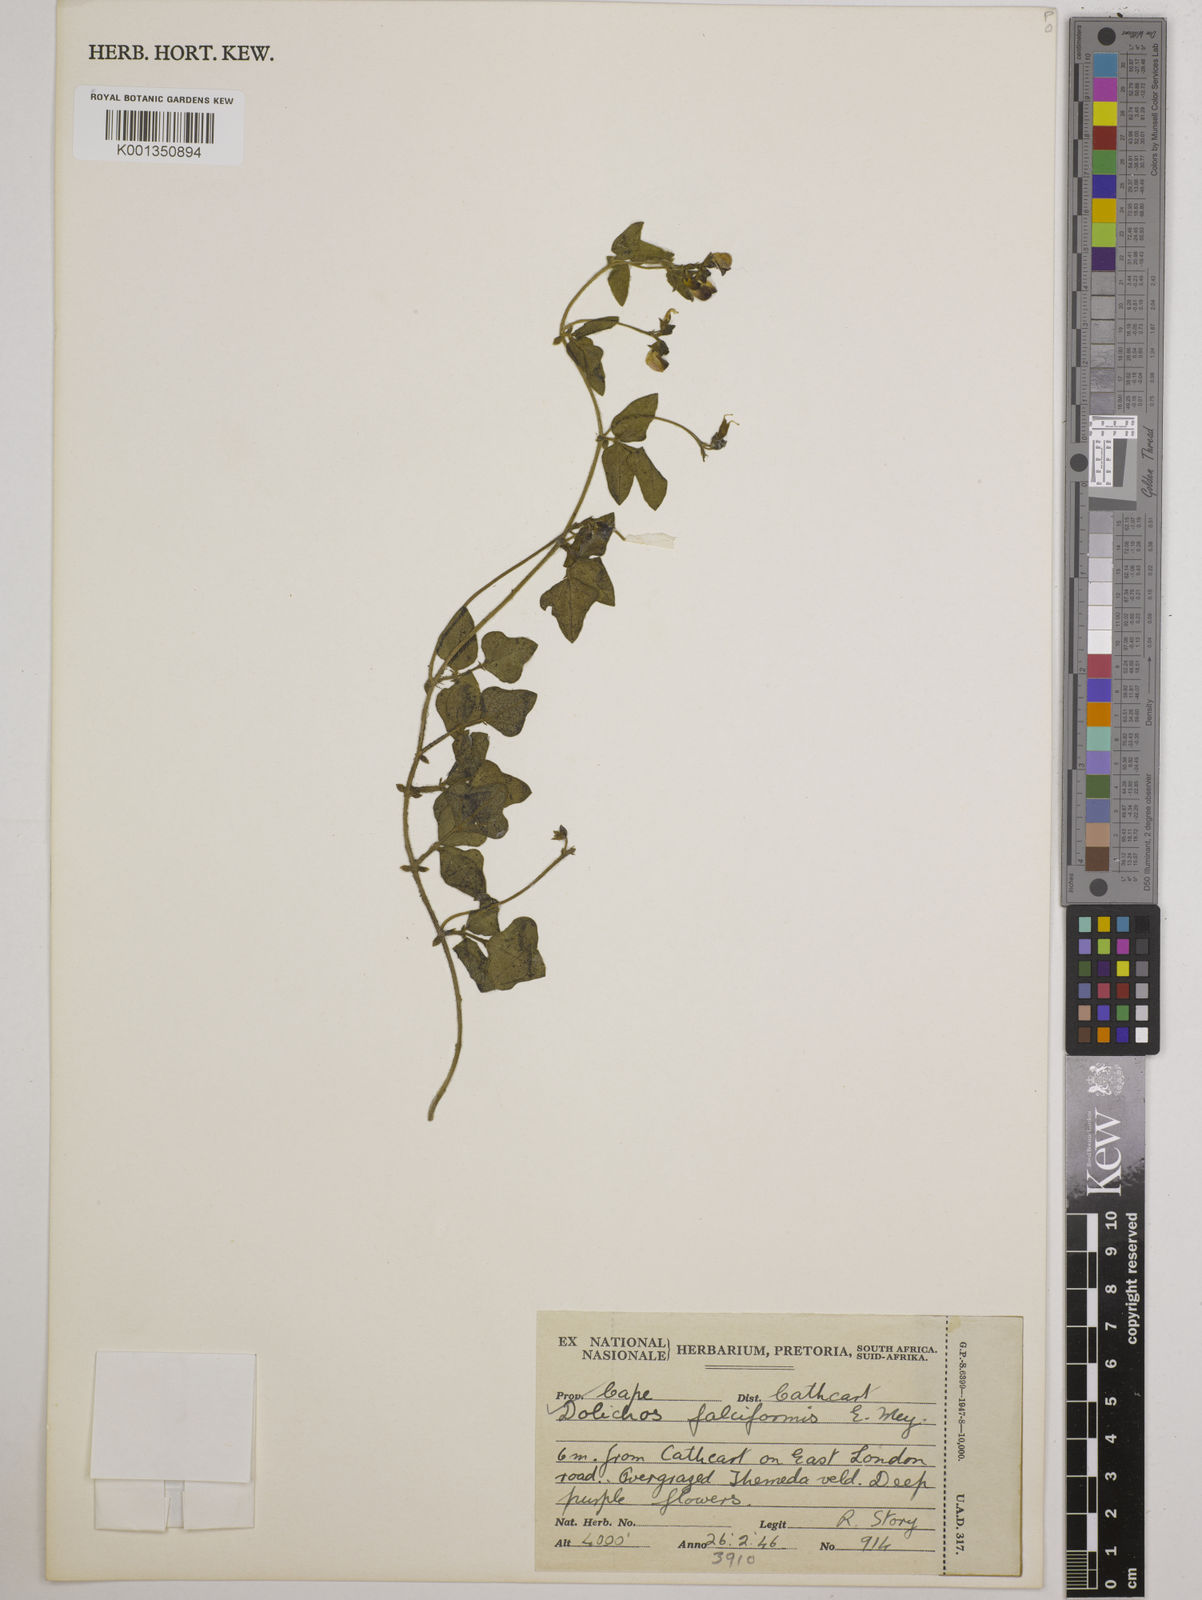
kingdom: Plantae
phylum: Tracheophyta
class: Magnoliopsida
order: Fabales
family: Fabaceae
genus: Dolichos
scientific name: Dolichos falciformis
